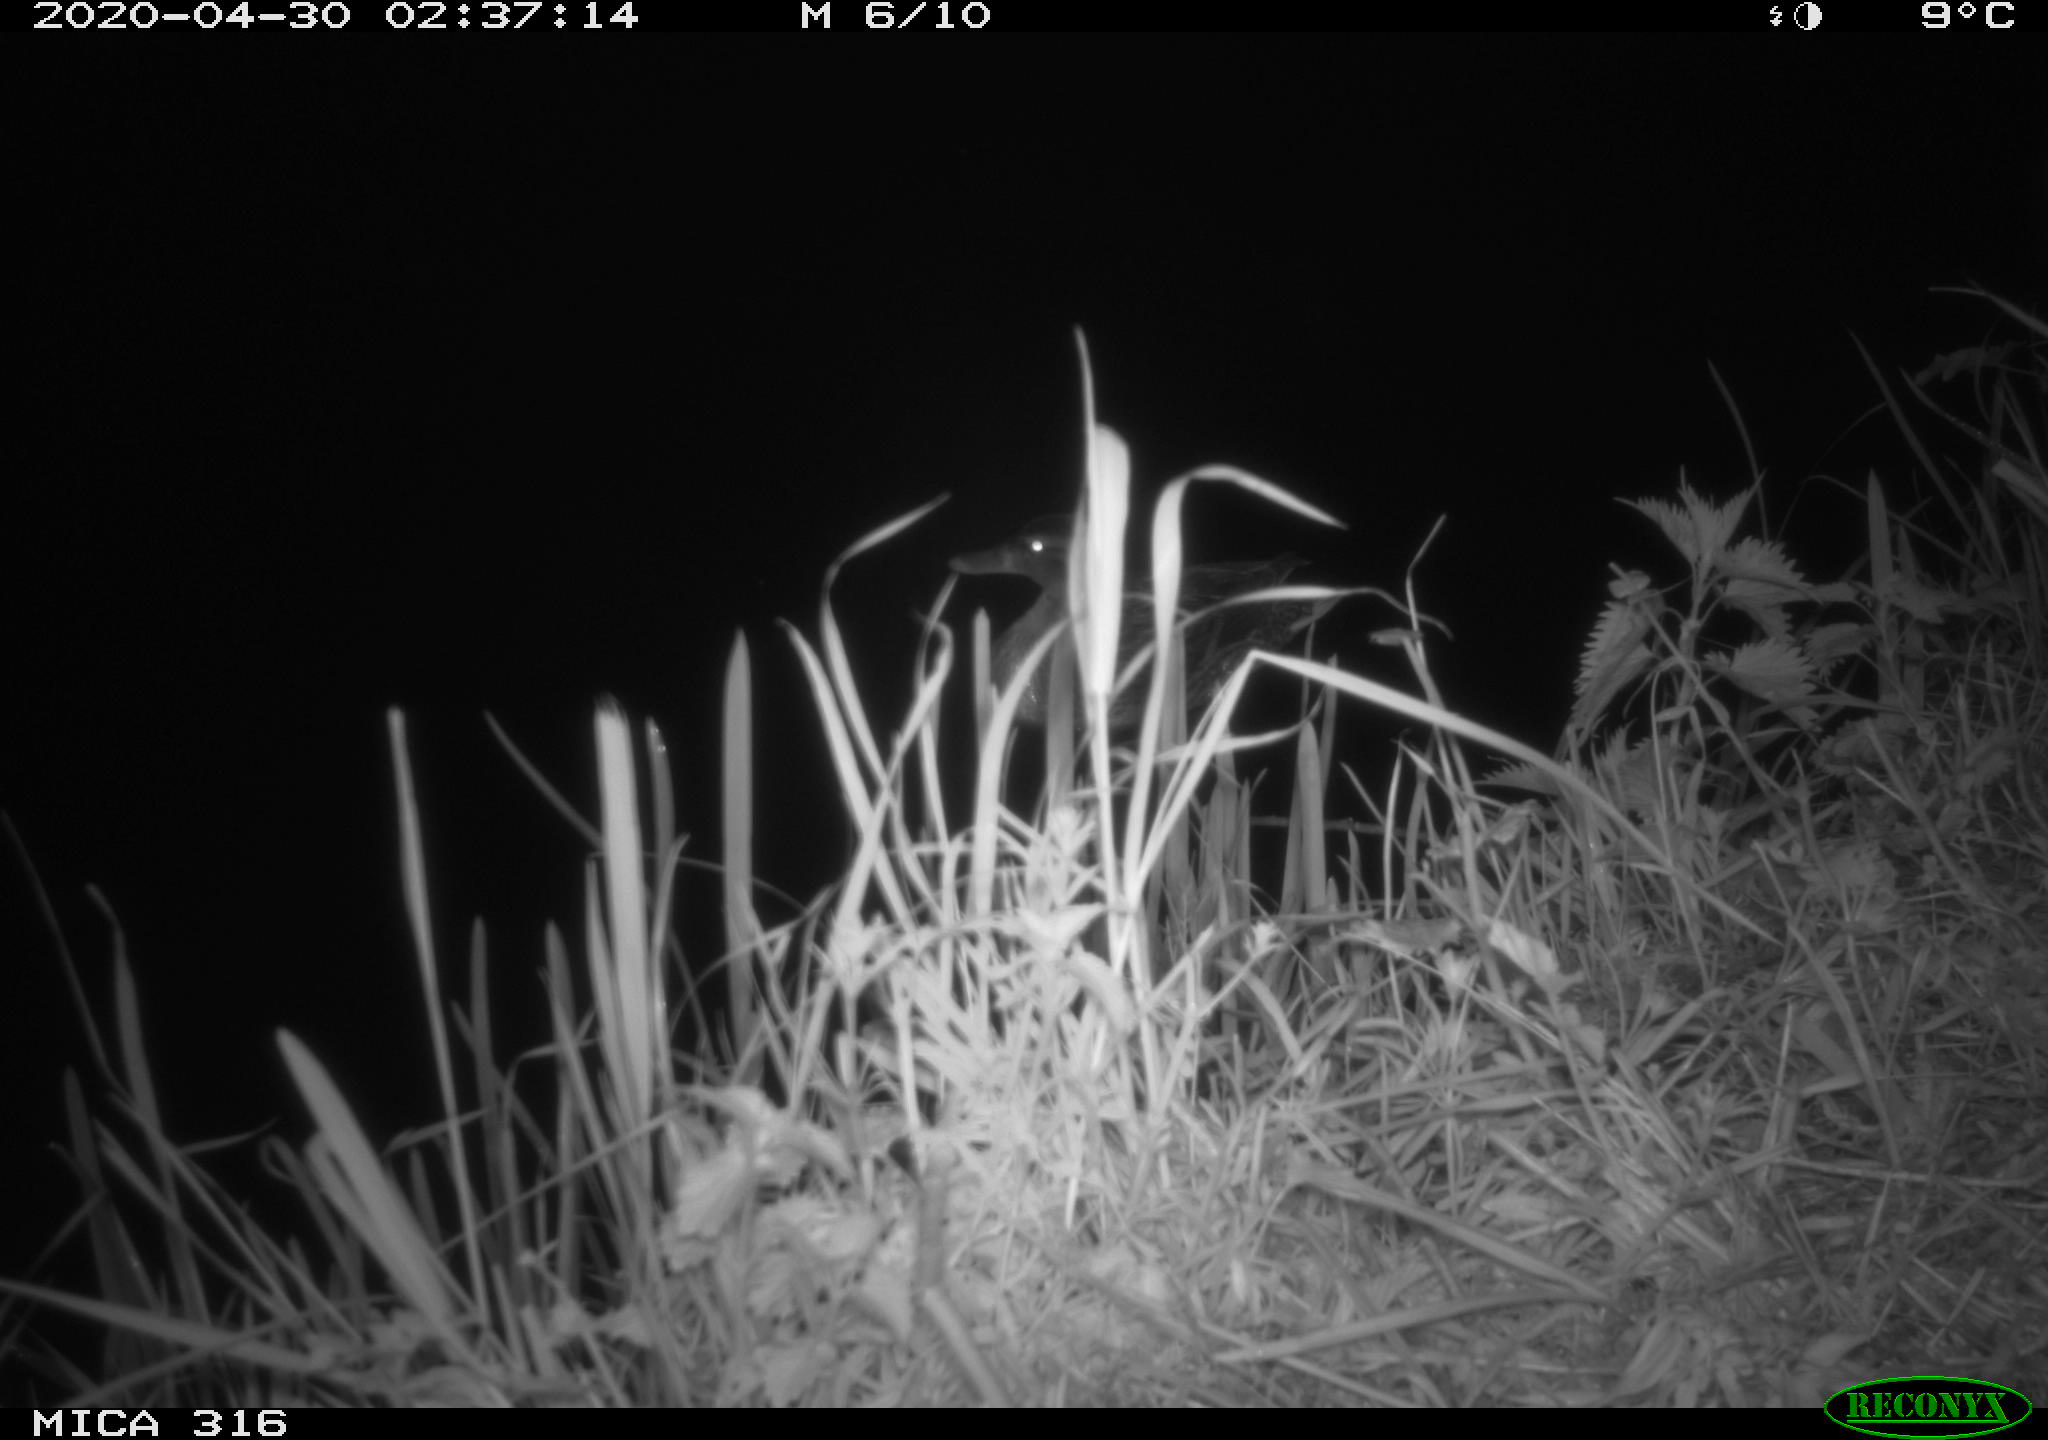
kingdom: Animalia
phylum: Chordata
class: Aves
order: Anseriformes
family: Anatidae
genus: Anas
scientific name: Anas platyrhynchos
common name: Mallard
